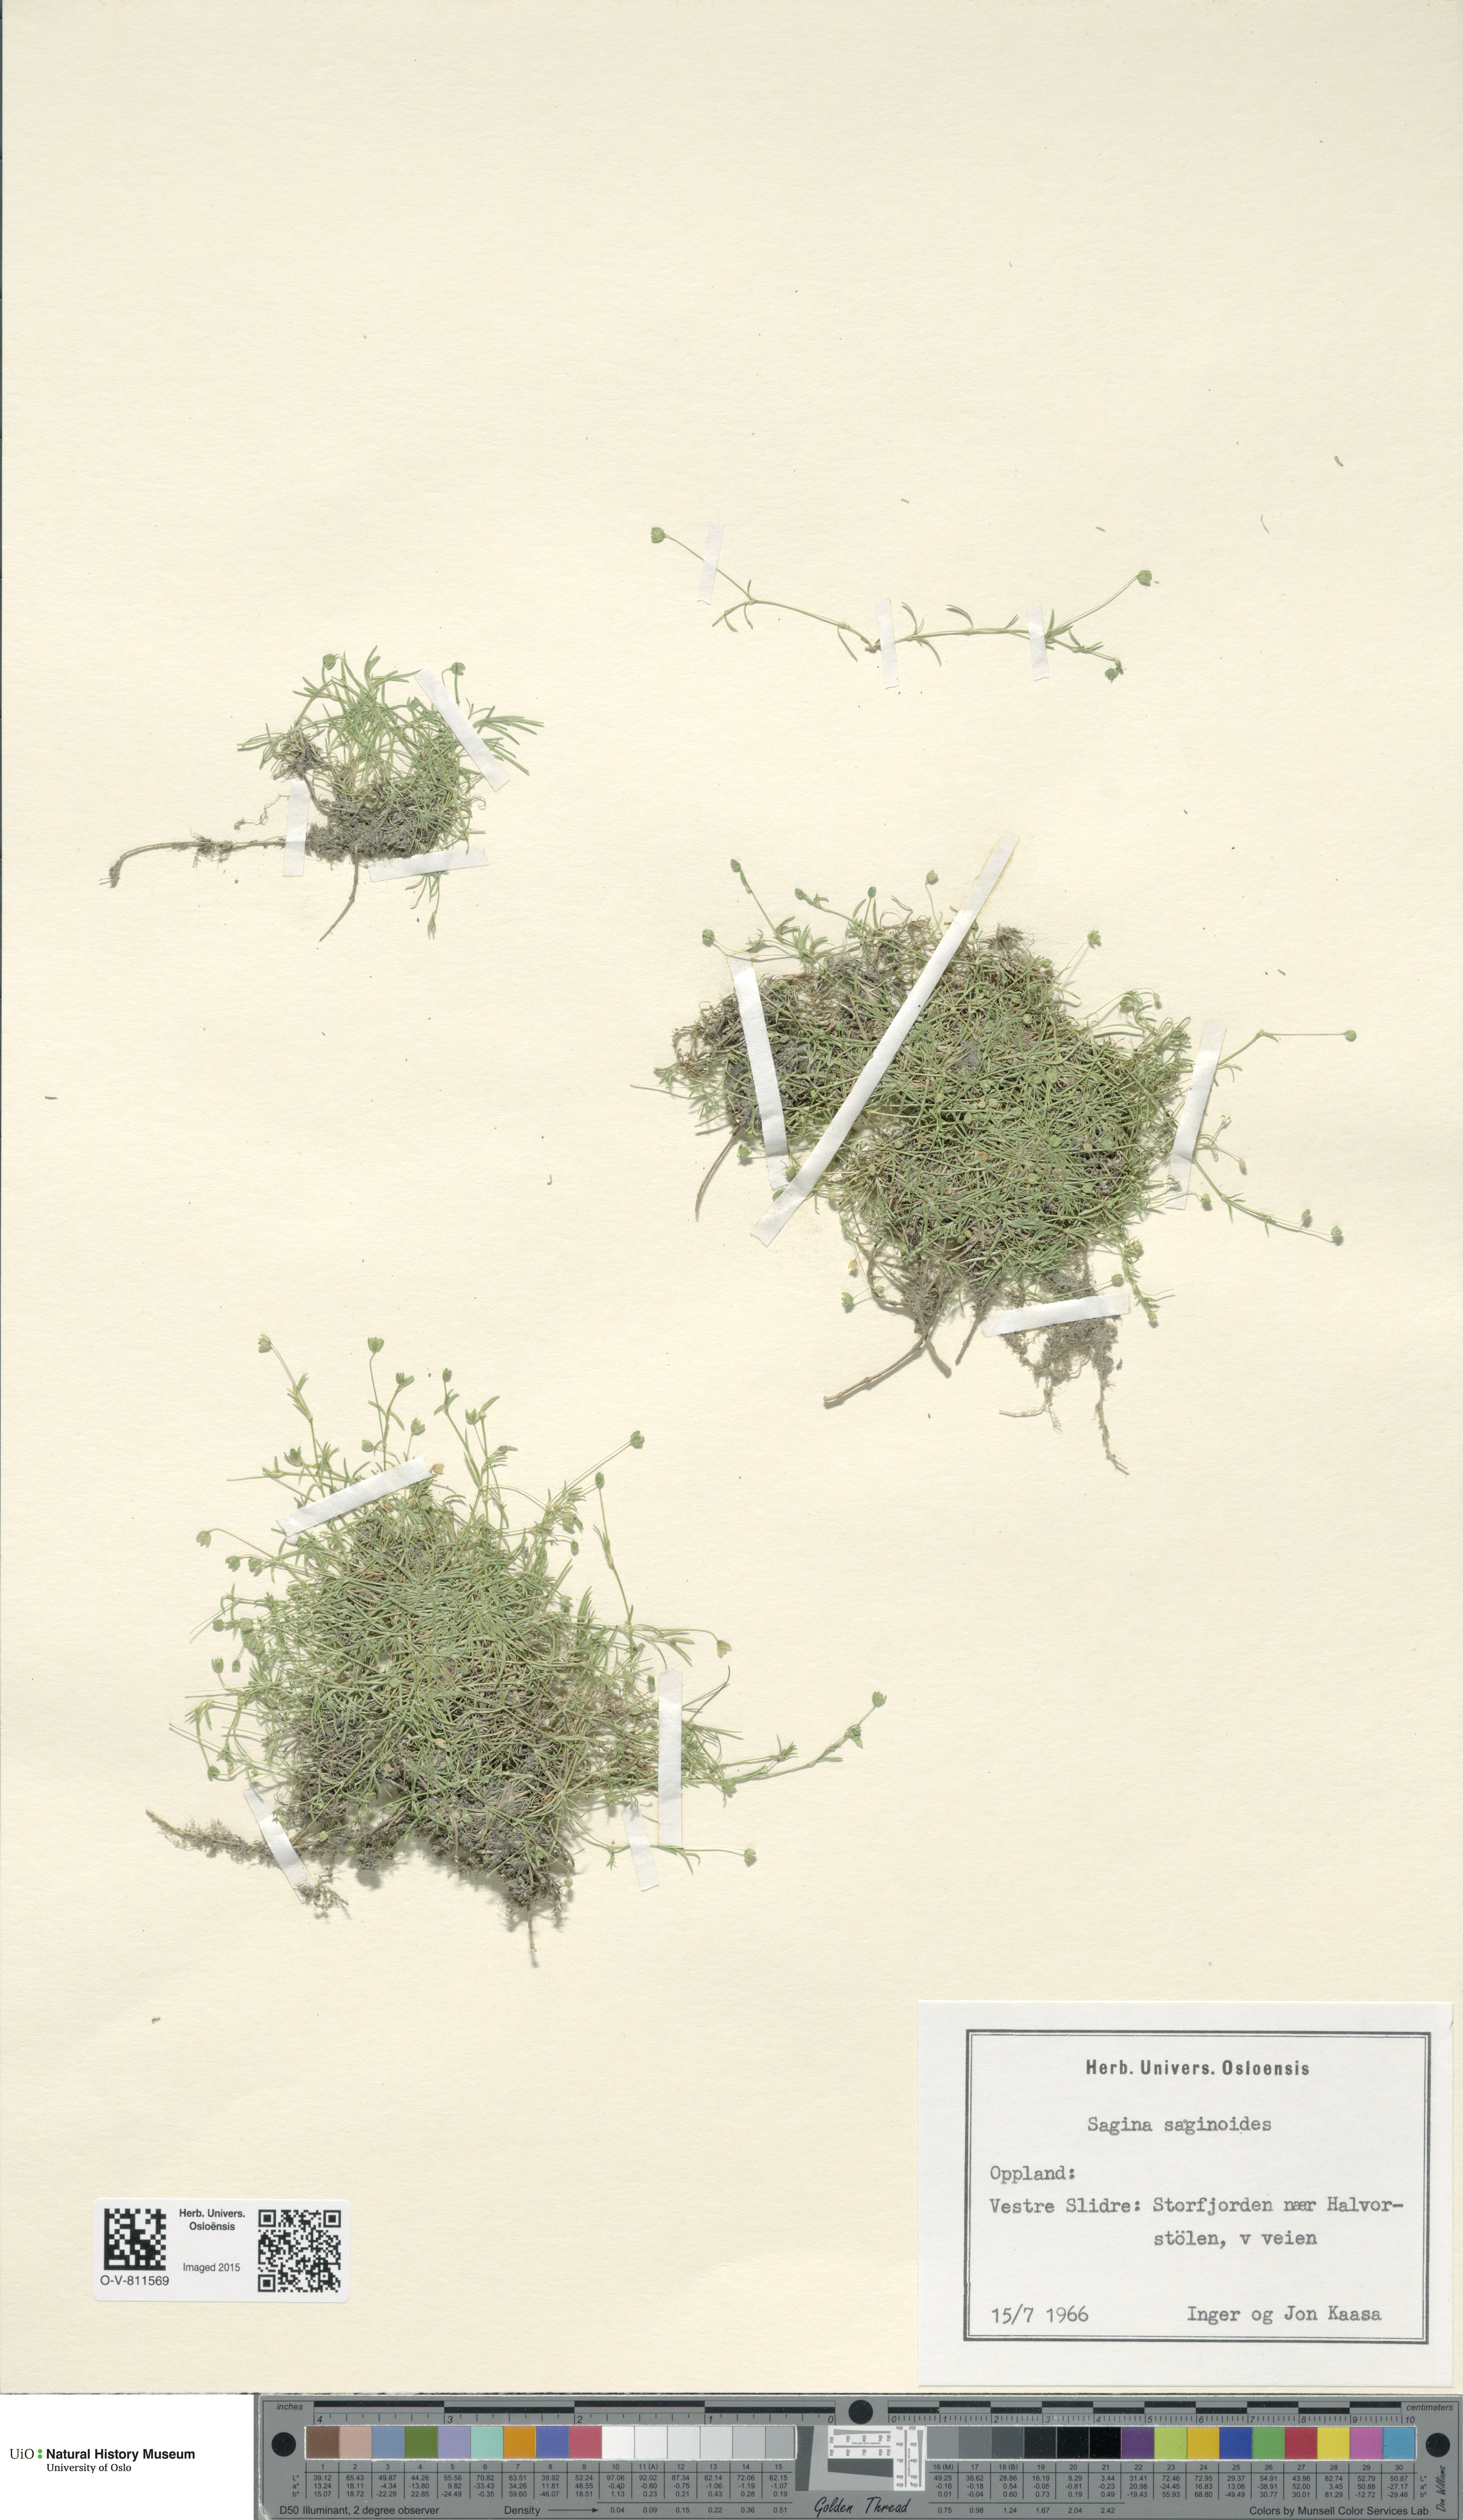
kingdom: Plantae
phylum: Tracheophyta
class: Magnoliopsida
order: Caryophyllales
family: Caryophyllaceae
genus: Sagina
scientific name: Sagina saginoides
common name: Alpine pearlwort
